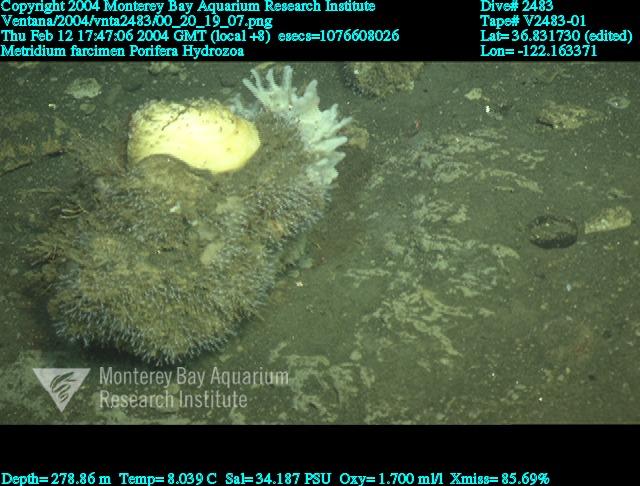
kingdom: Animalia
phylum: Porifera
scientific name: Porifera
